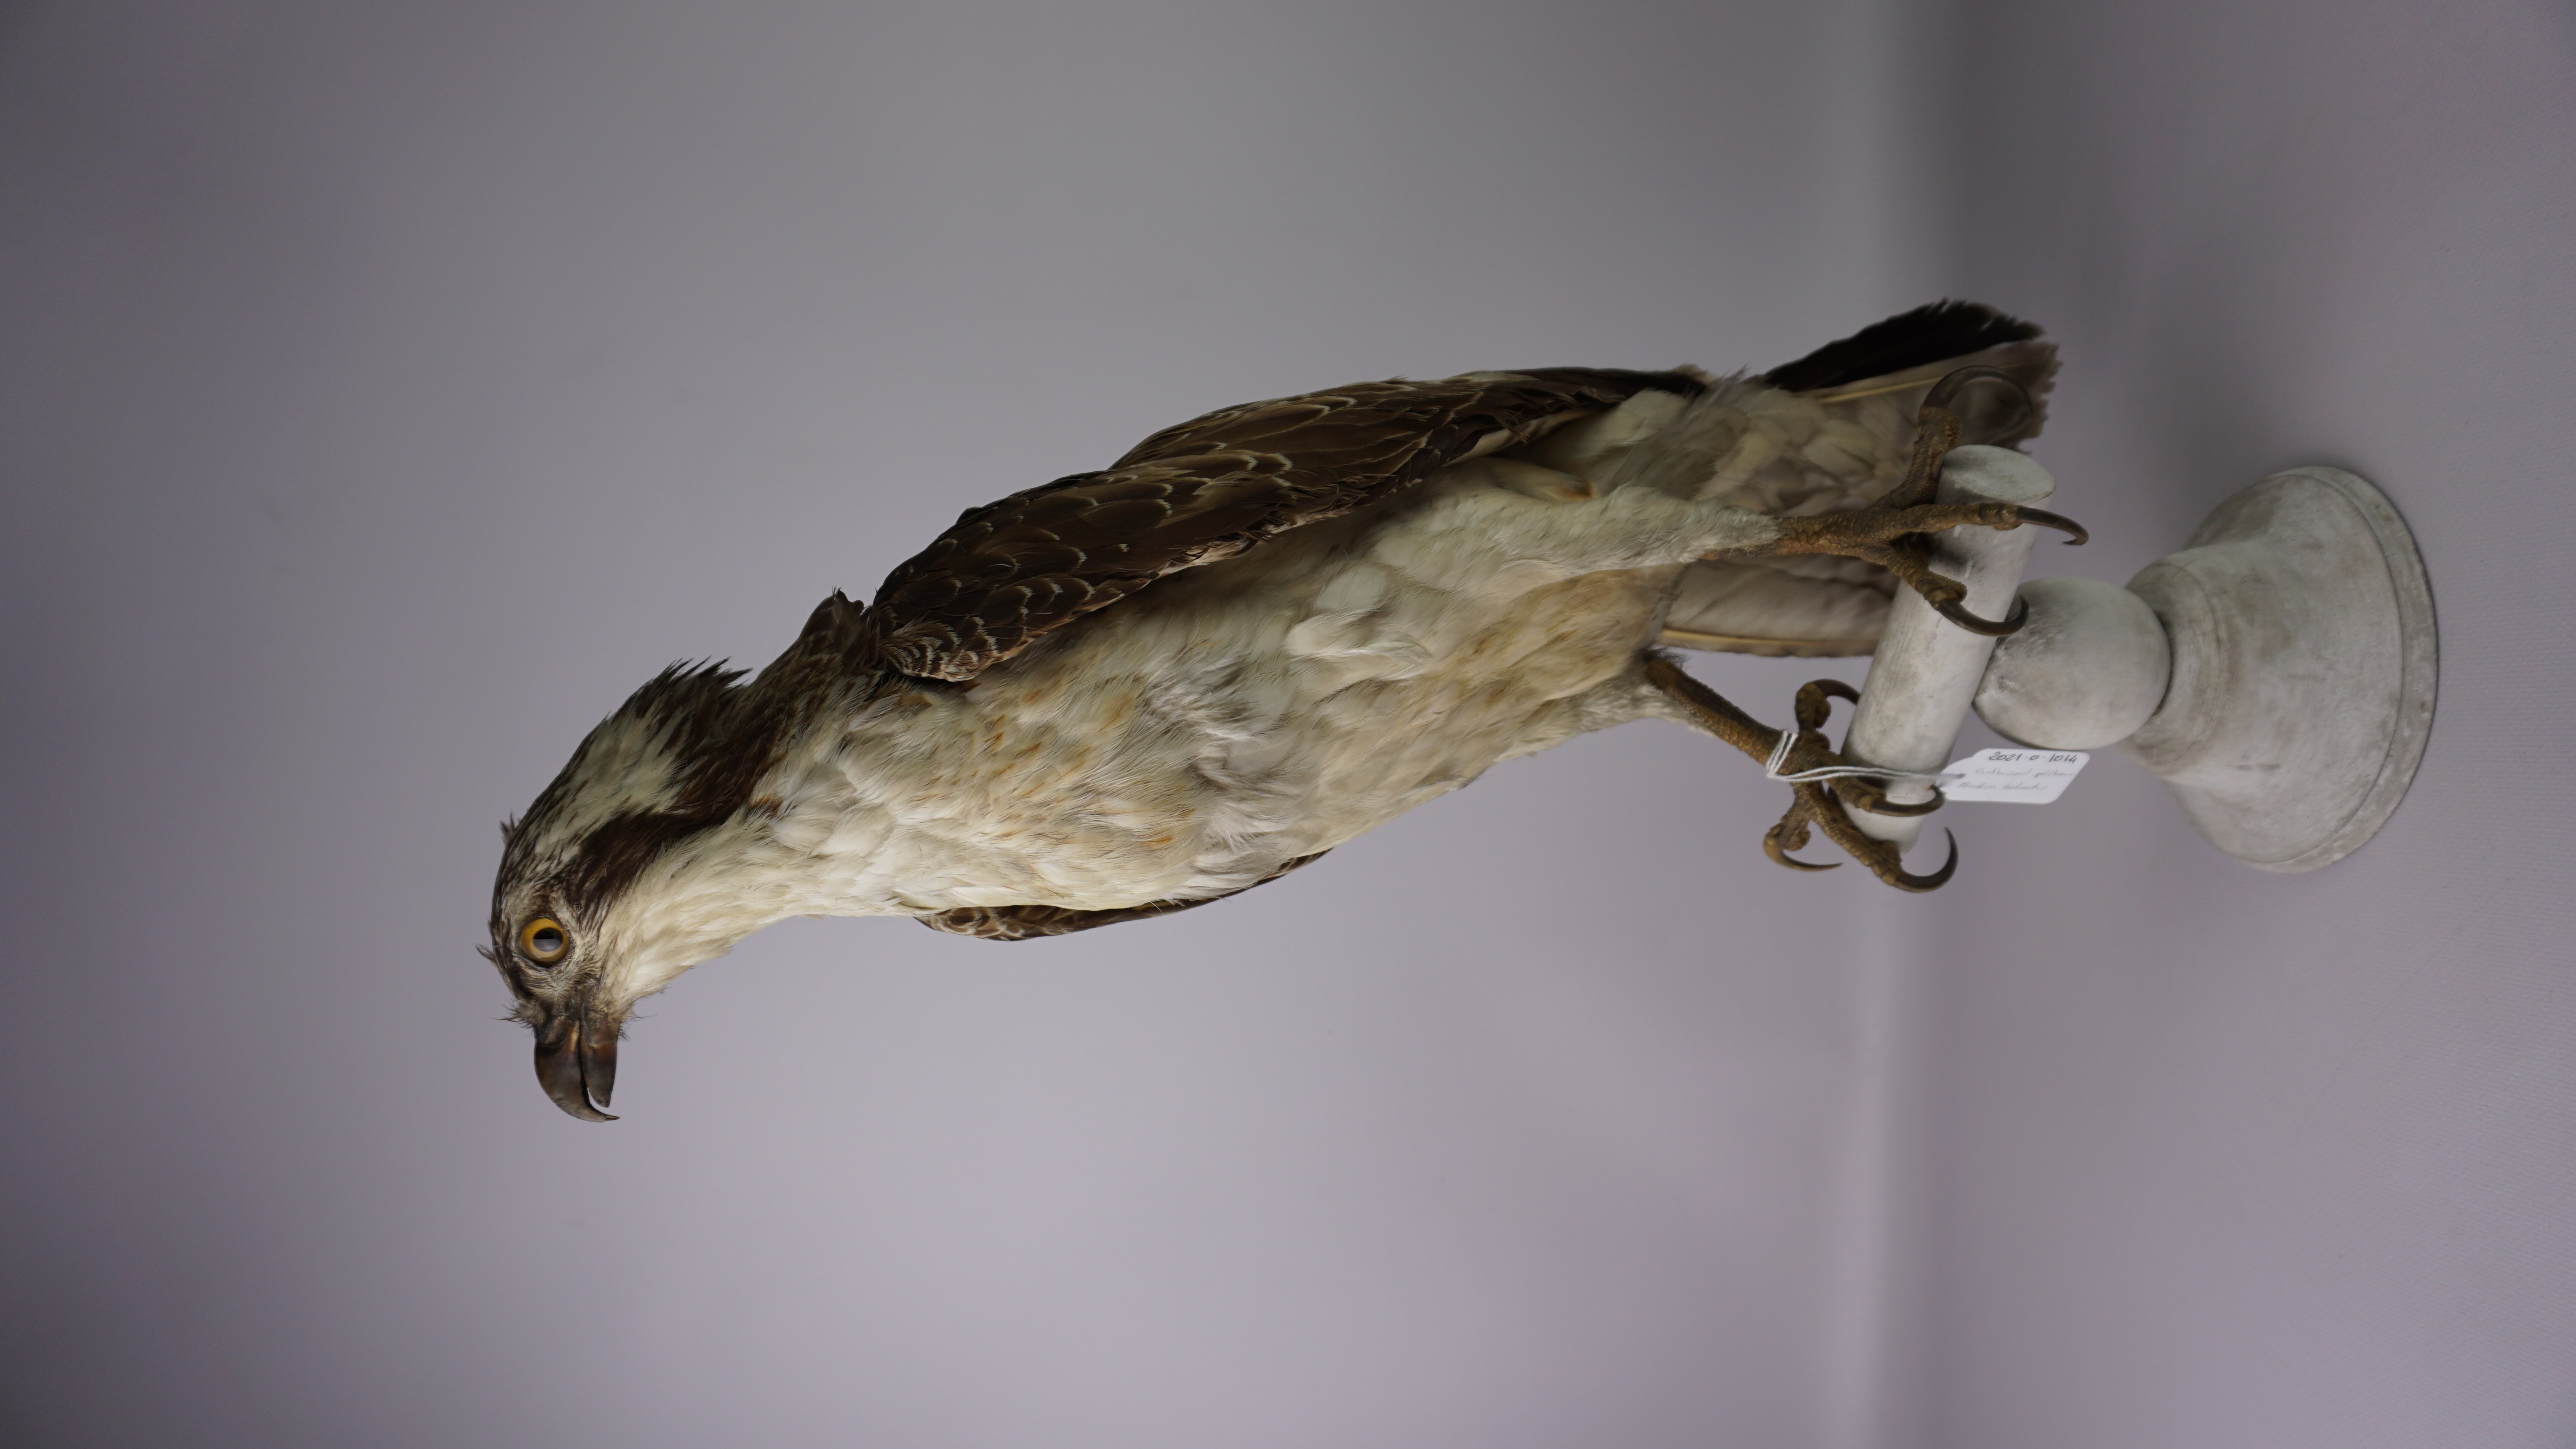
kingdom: Animalia
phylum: Chordata
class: Aves
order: Accipitriformes
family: Pandionidae
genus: Pandion
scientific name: Pandion haliaetus
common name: Osprey
